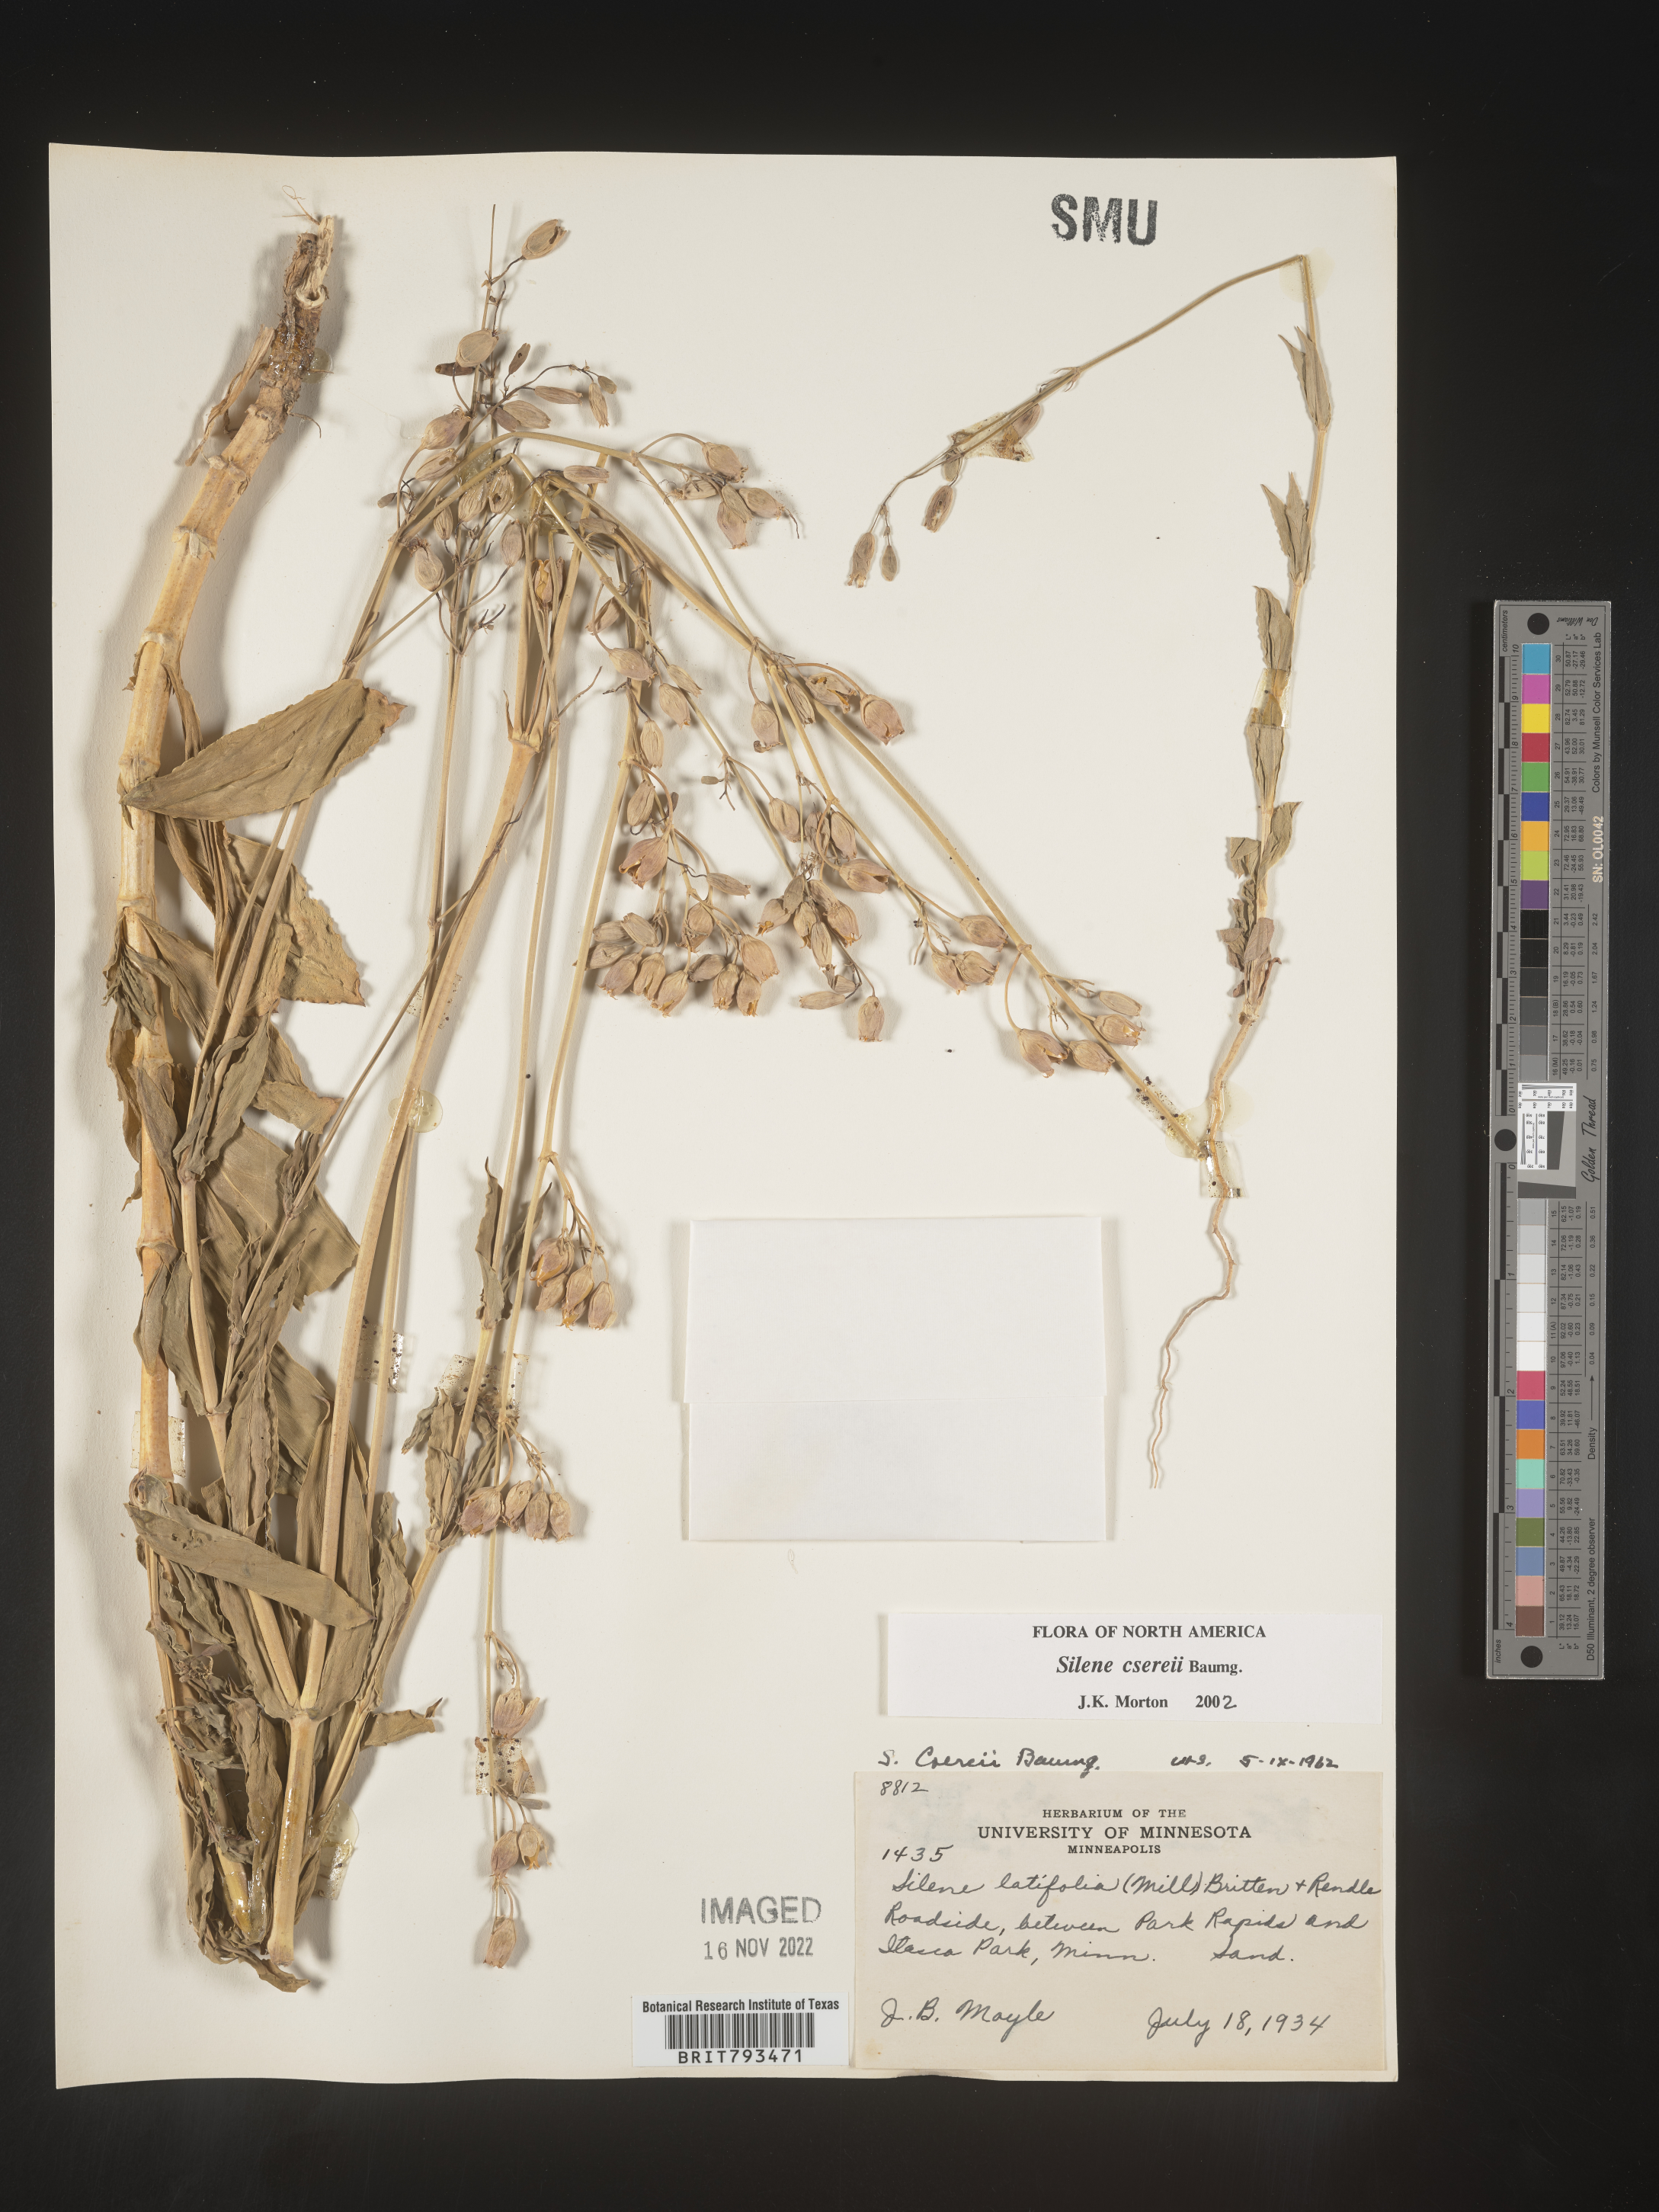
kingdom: Plantae
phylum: Tracheophyta
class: Magnoliopsida
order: Caryophyllales
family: Caryophyllaceae
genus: Silene
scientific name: Silene csereii
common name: Balkan catchfly
